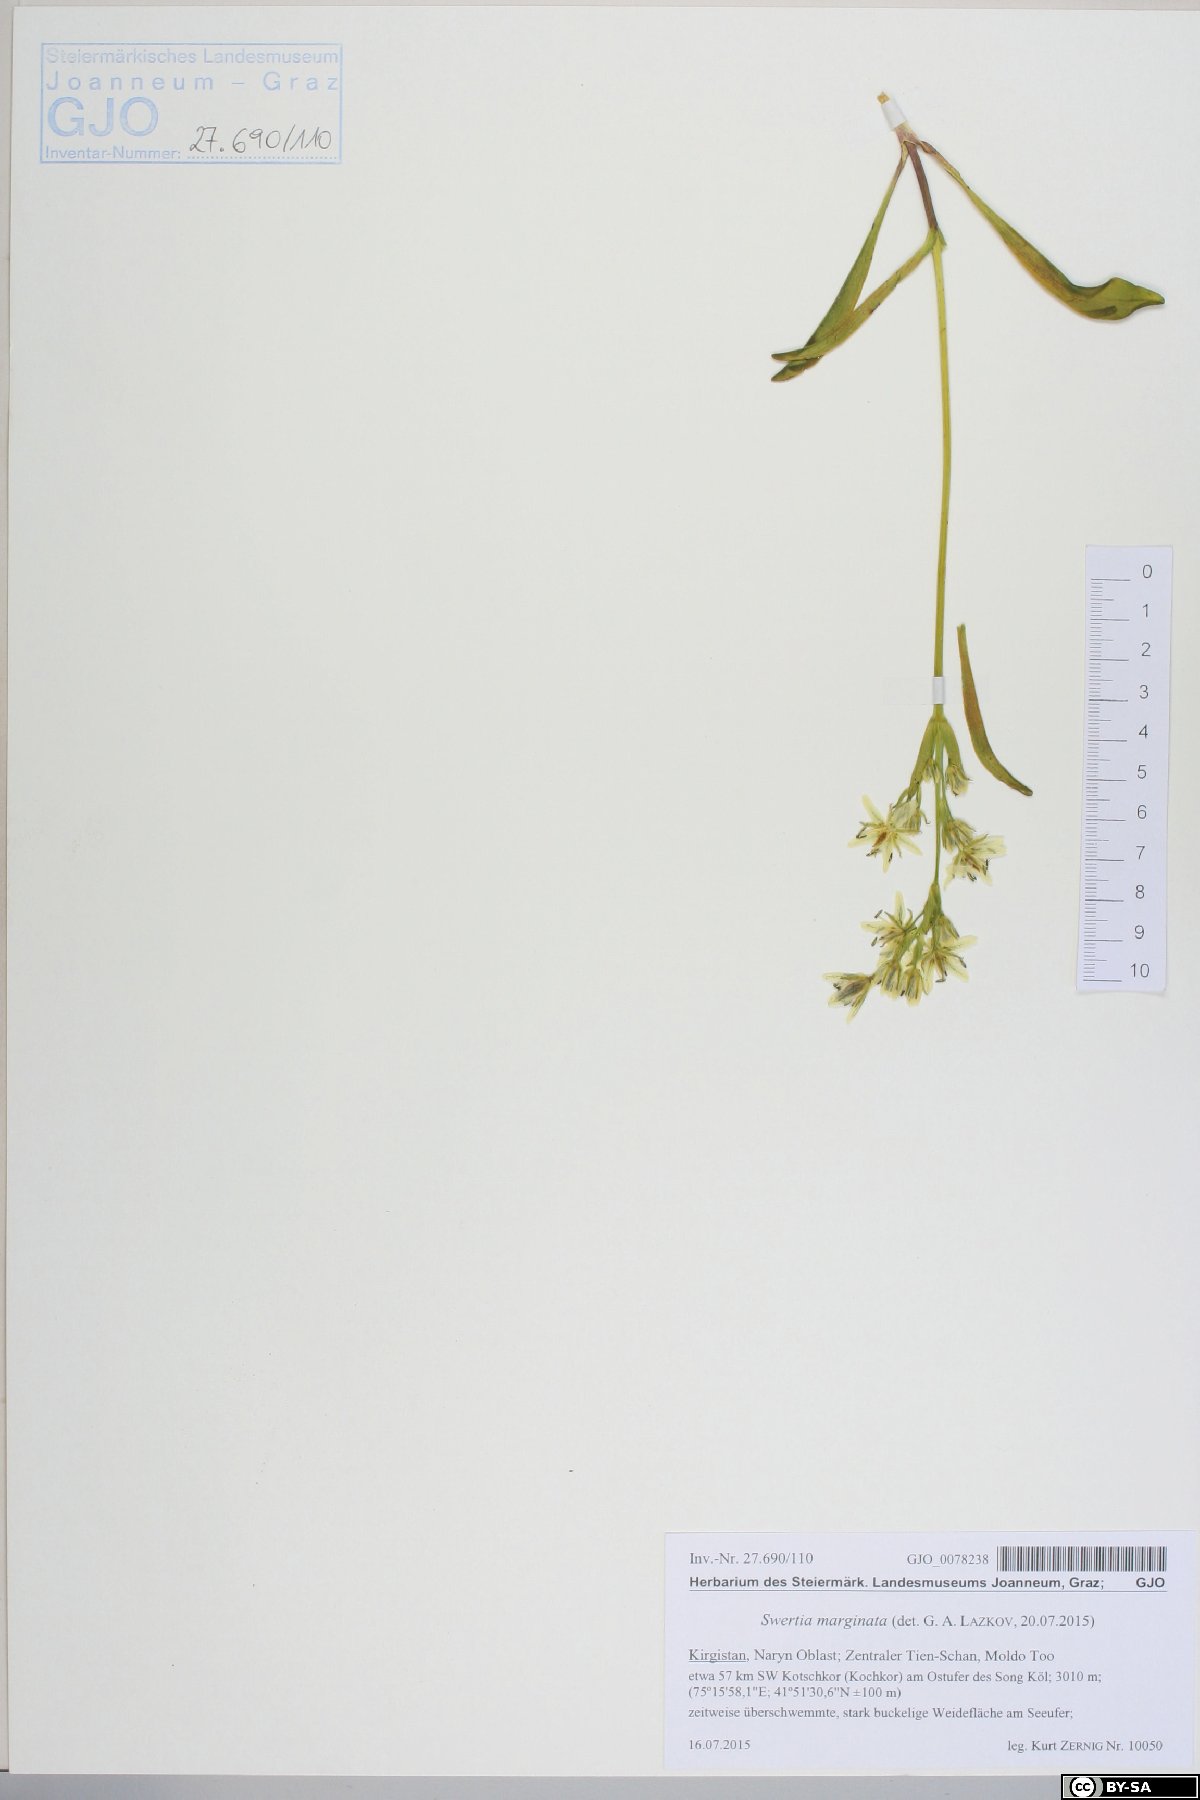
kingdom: Plantae
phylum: Tracheophyta
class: Magnoliopsida
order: Gentianales
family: Gentianaceae
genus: Swertia
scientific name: Swertia marginata
